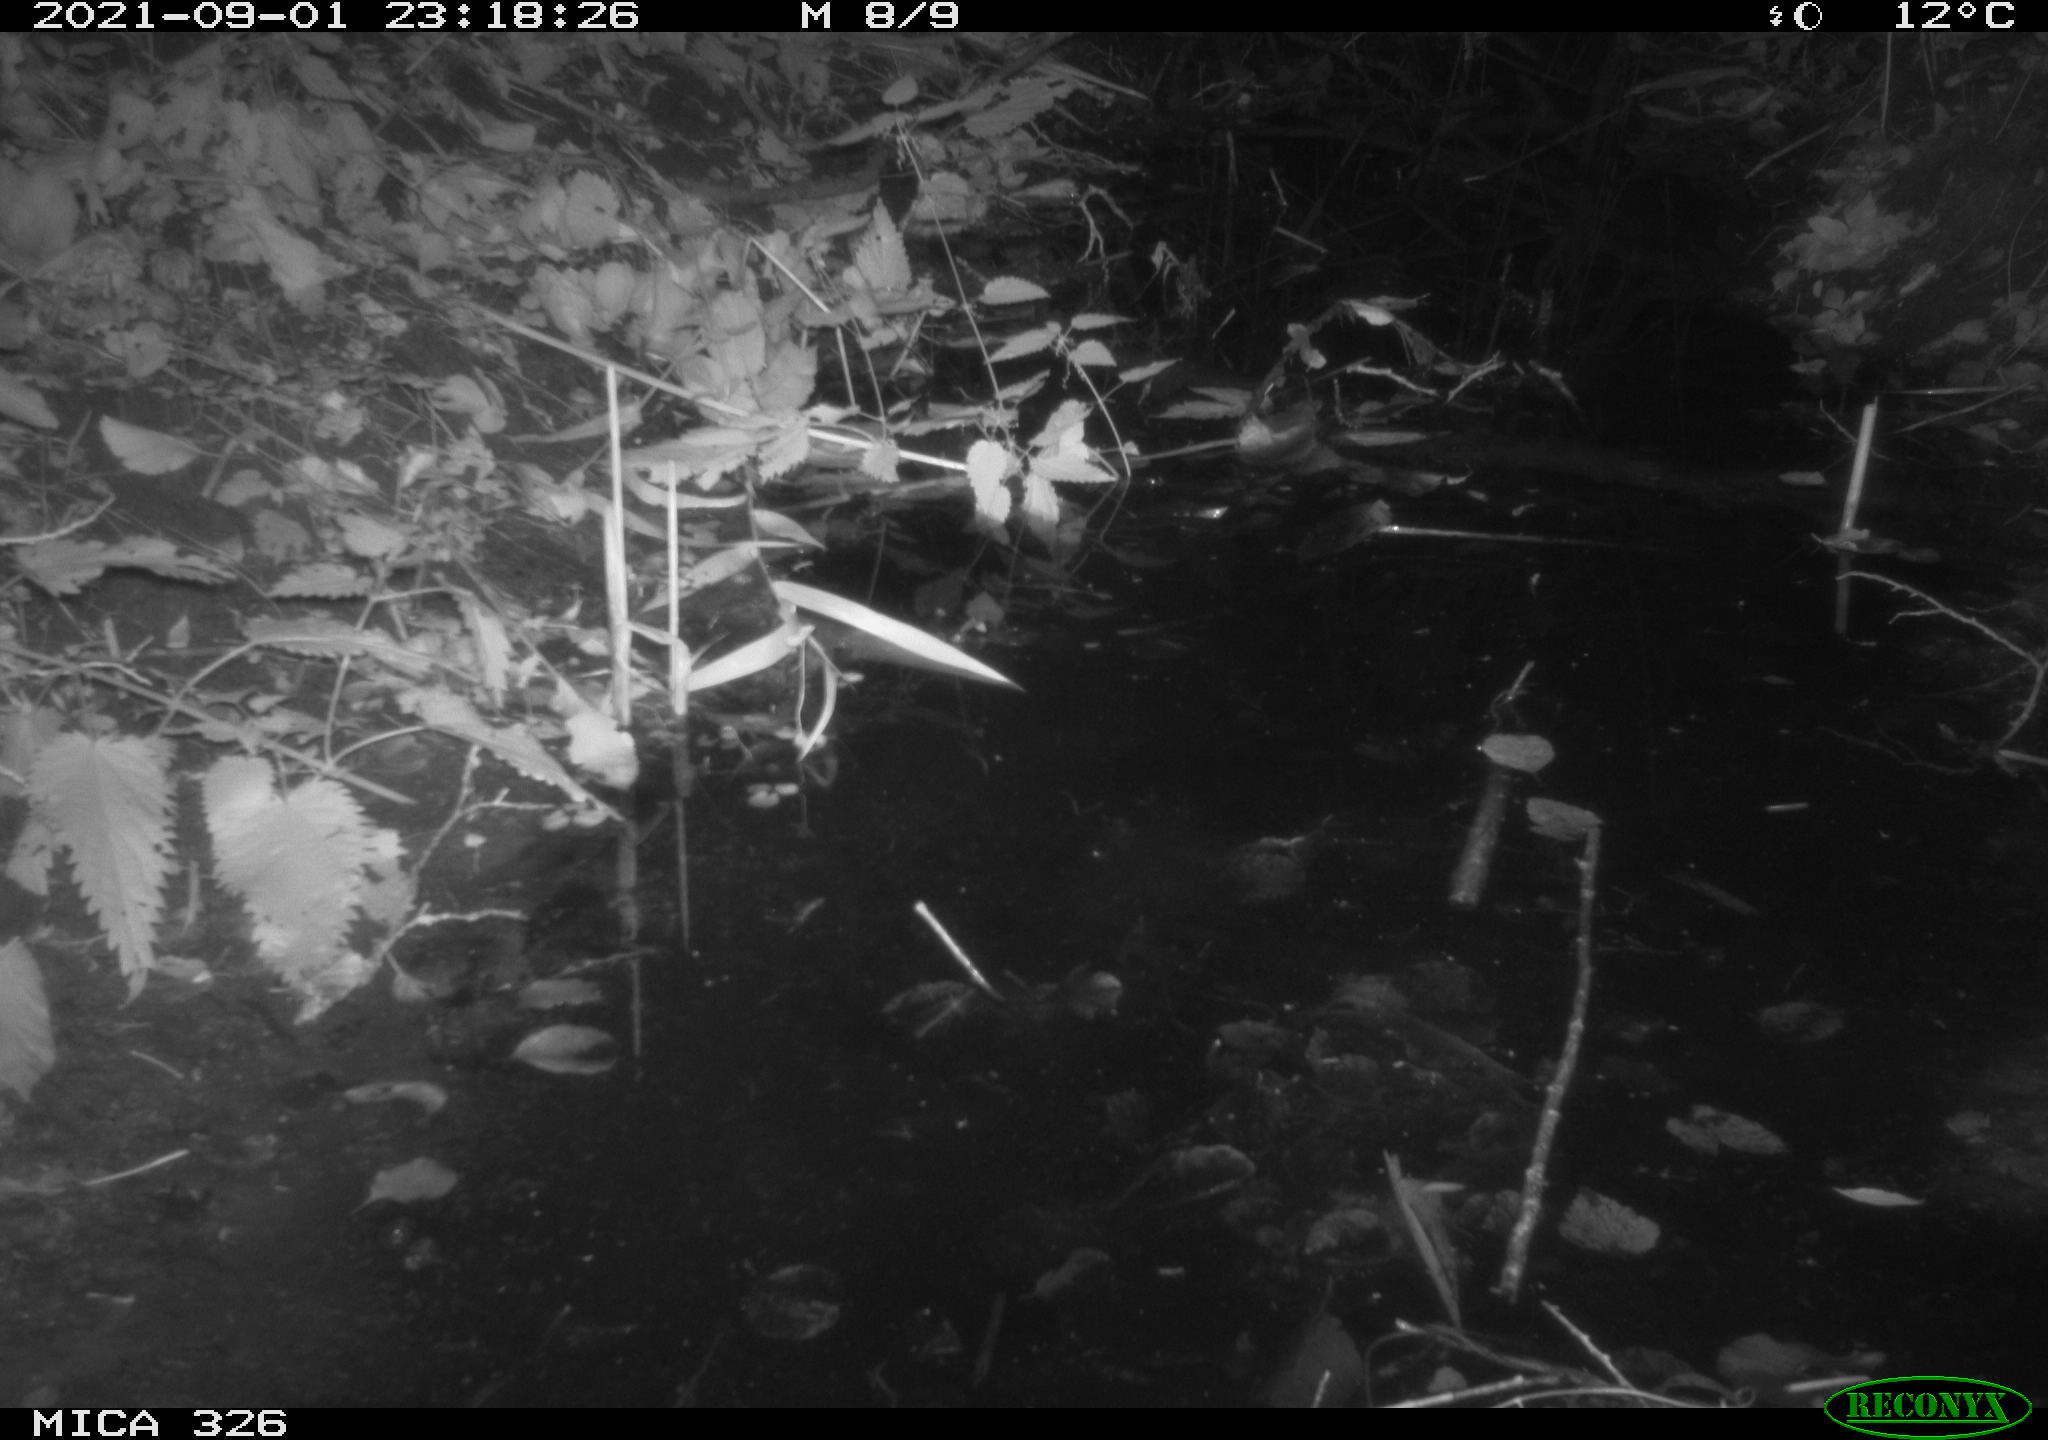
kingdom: Animalia
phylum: Chordata
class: Mammalia
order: Rodentia
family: Cricetidae
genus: Ondatra
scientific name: Ondatra zibethicus
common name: Muskrat
